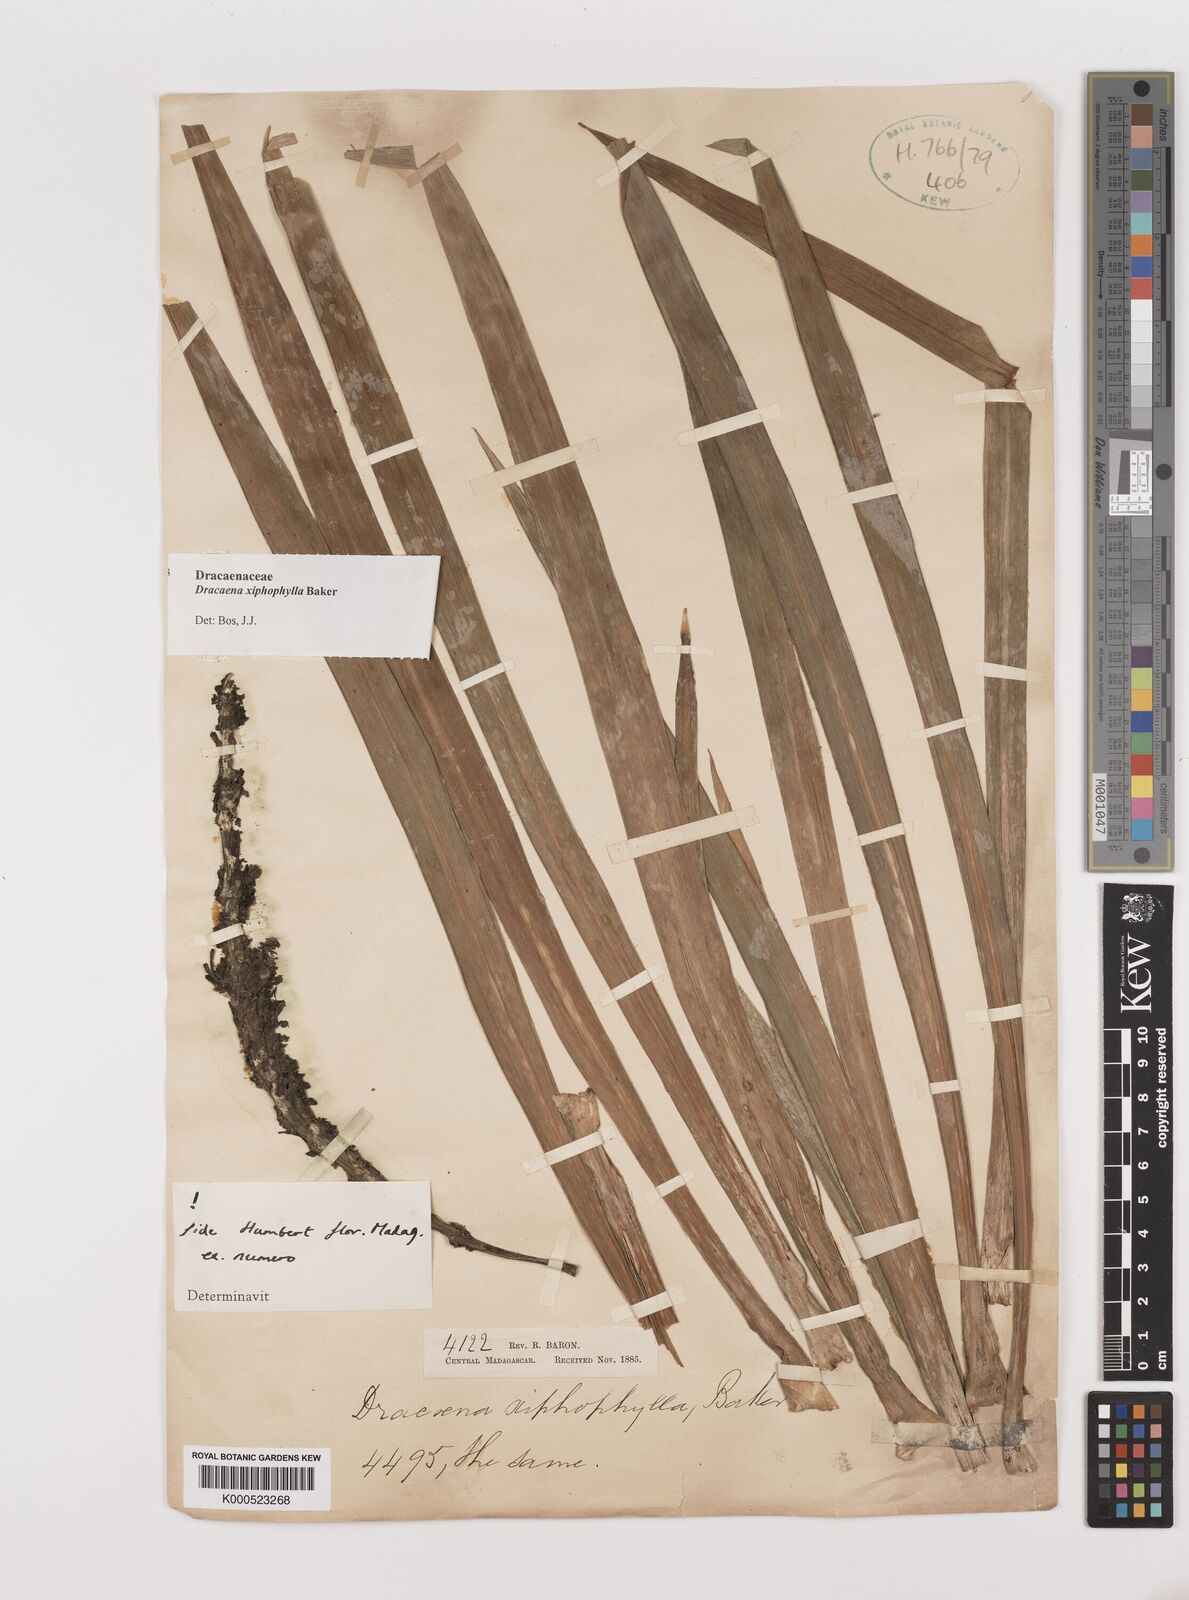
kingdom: Plantae
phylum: Tracheophyta
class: Liliopsida
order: Asparagales
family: Asparagaceae
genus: Dracaena
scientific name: Dracaena xiphophylla
